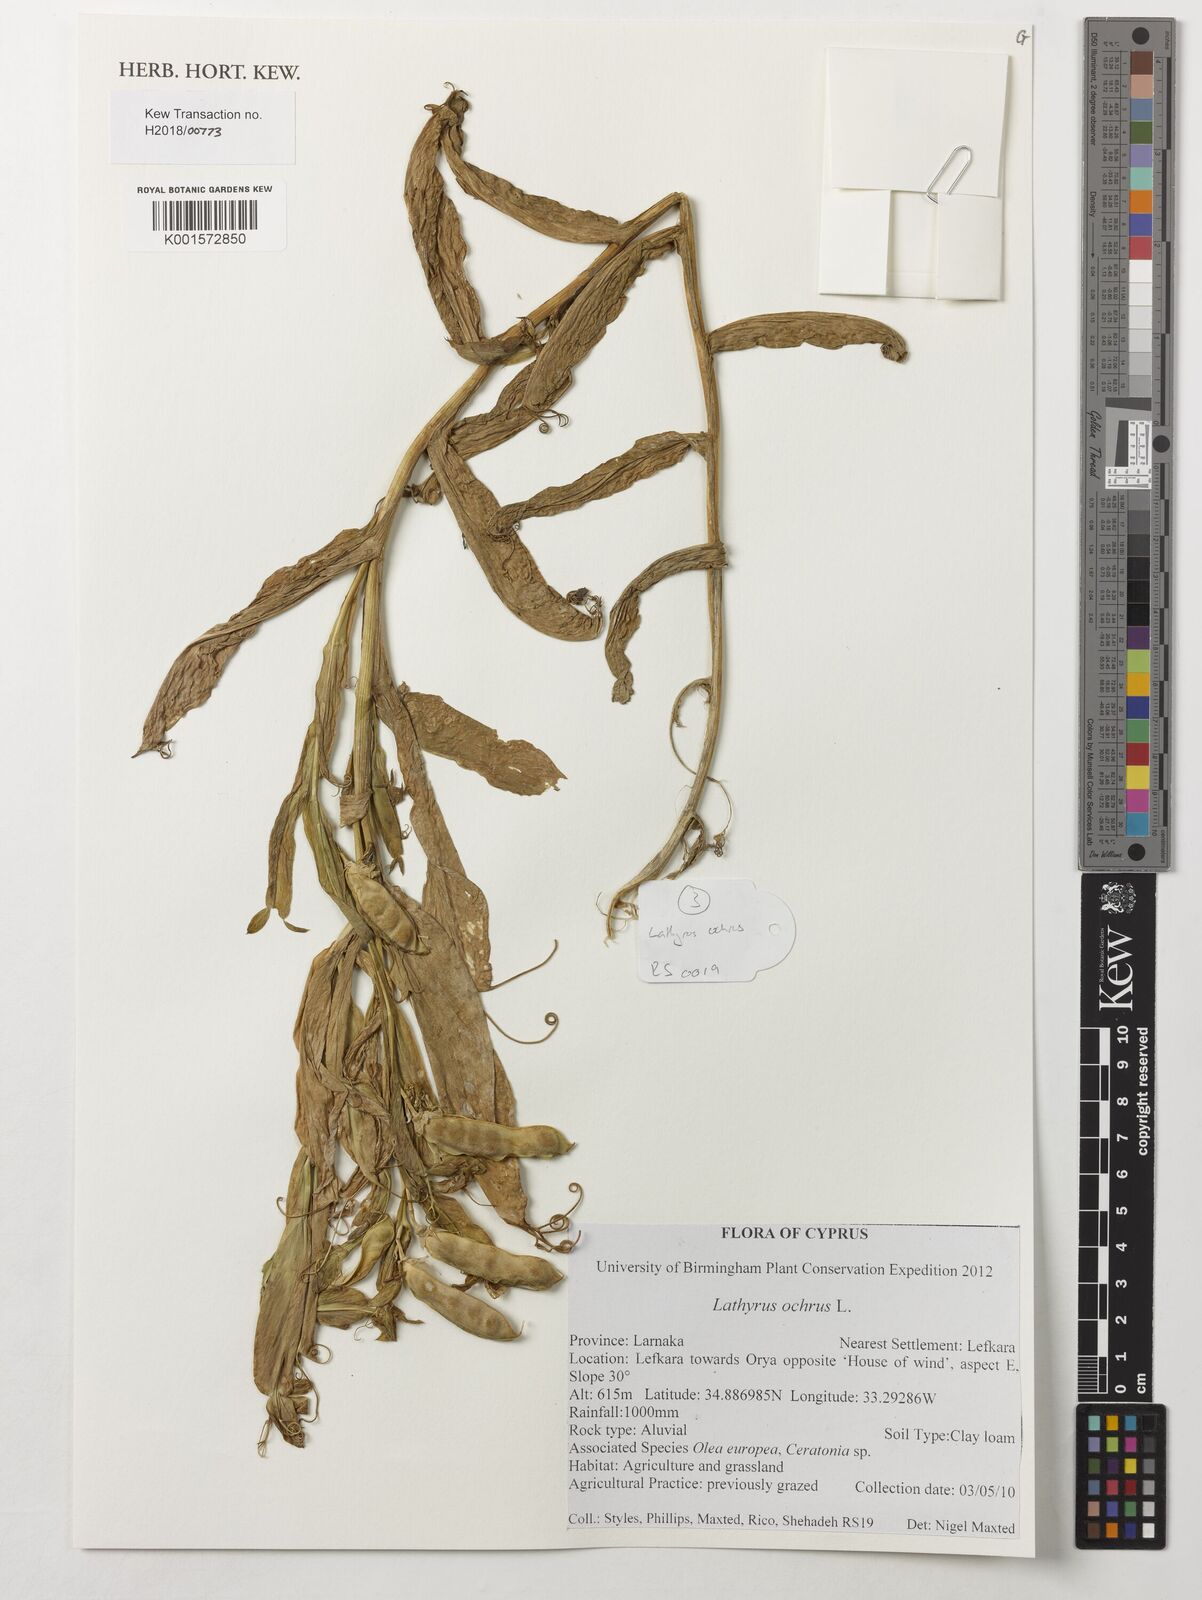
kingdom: Plantae
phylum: Tracheophyta
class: Magnoliopsida
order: Fabales
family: Fabaceae
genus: Lathyrus
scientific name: Lathyrus ochrus
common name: Winged vetchling
